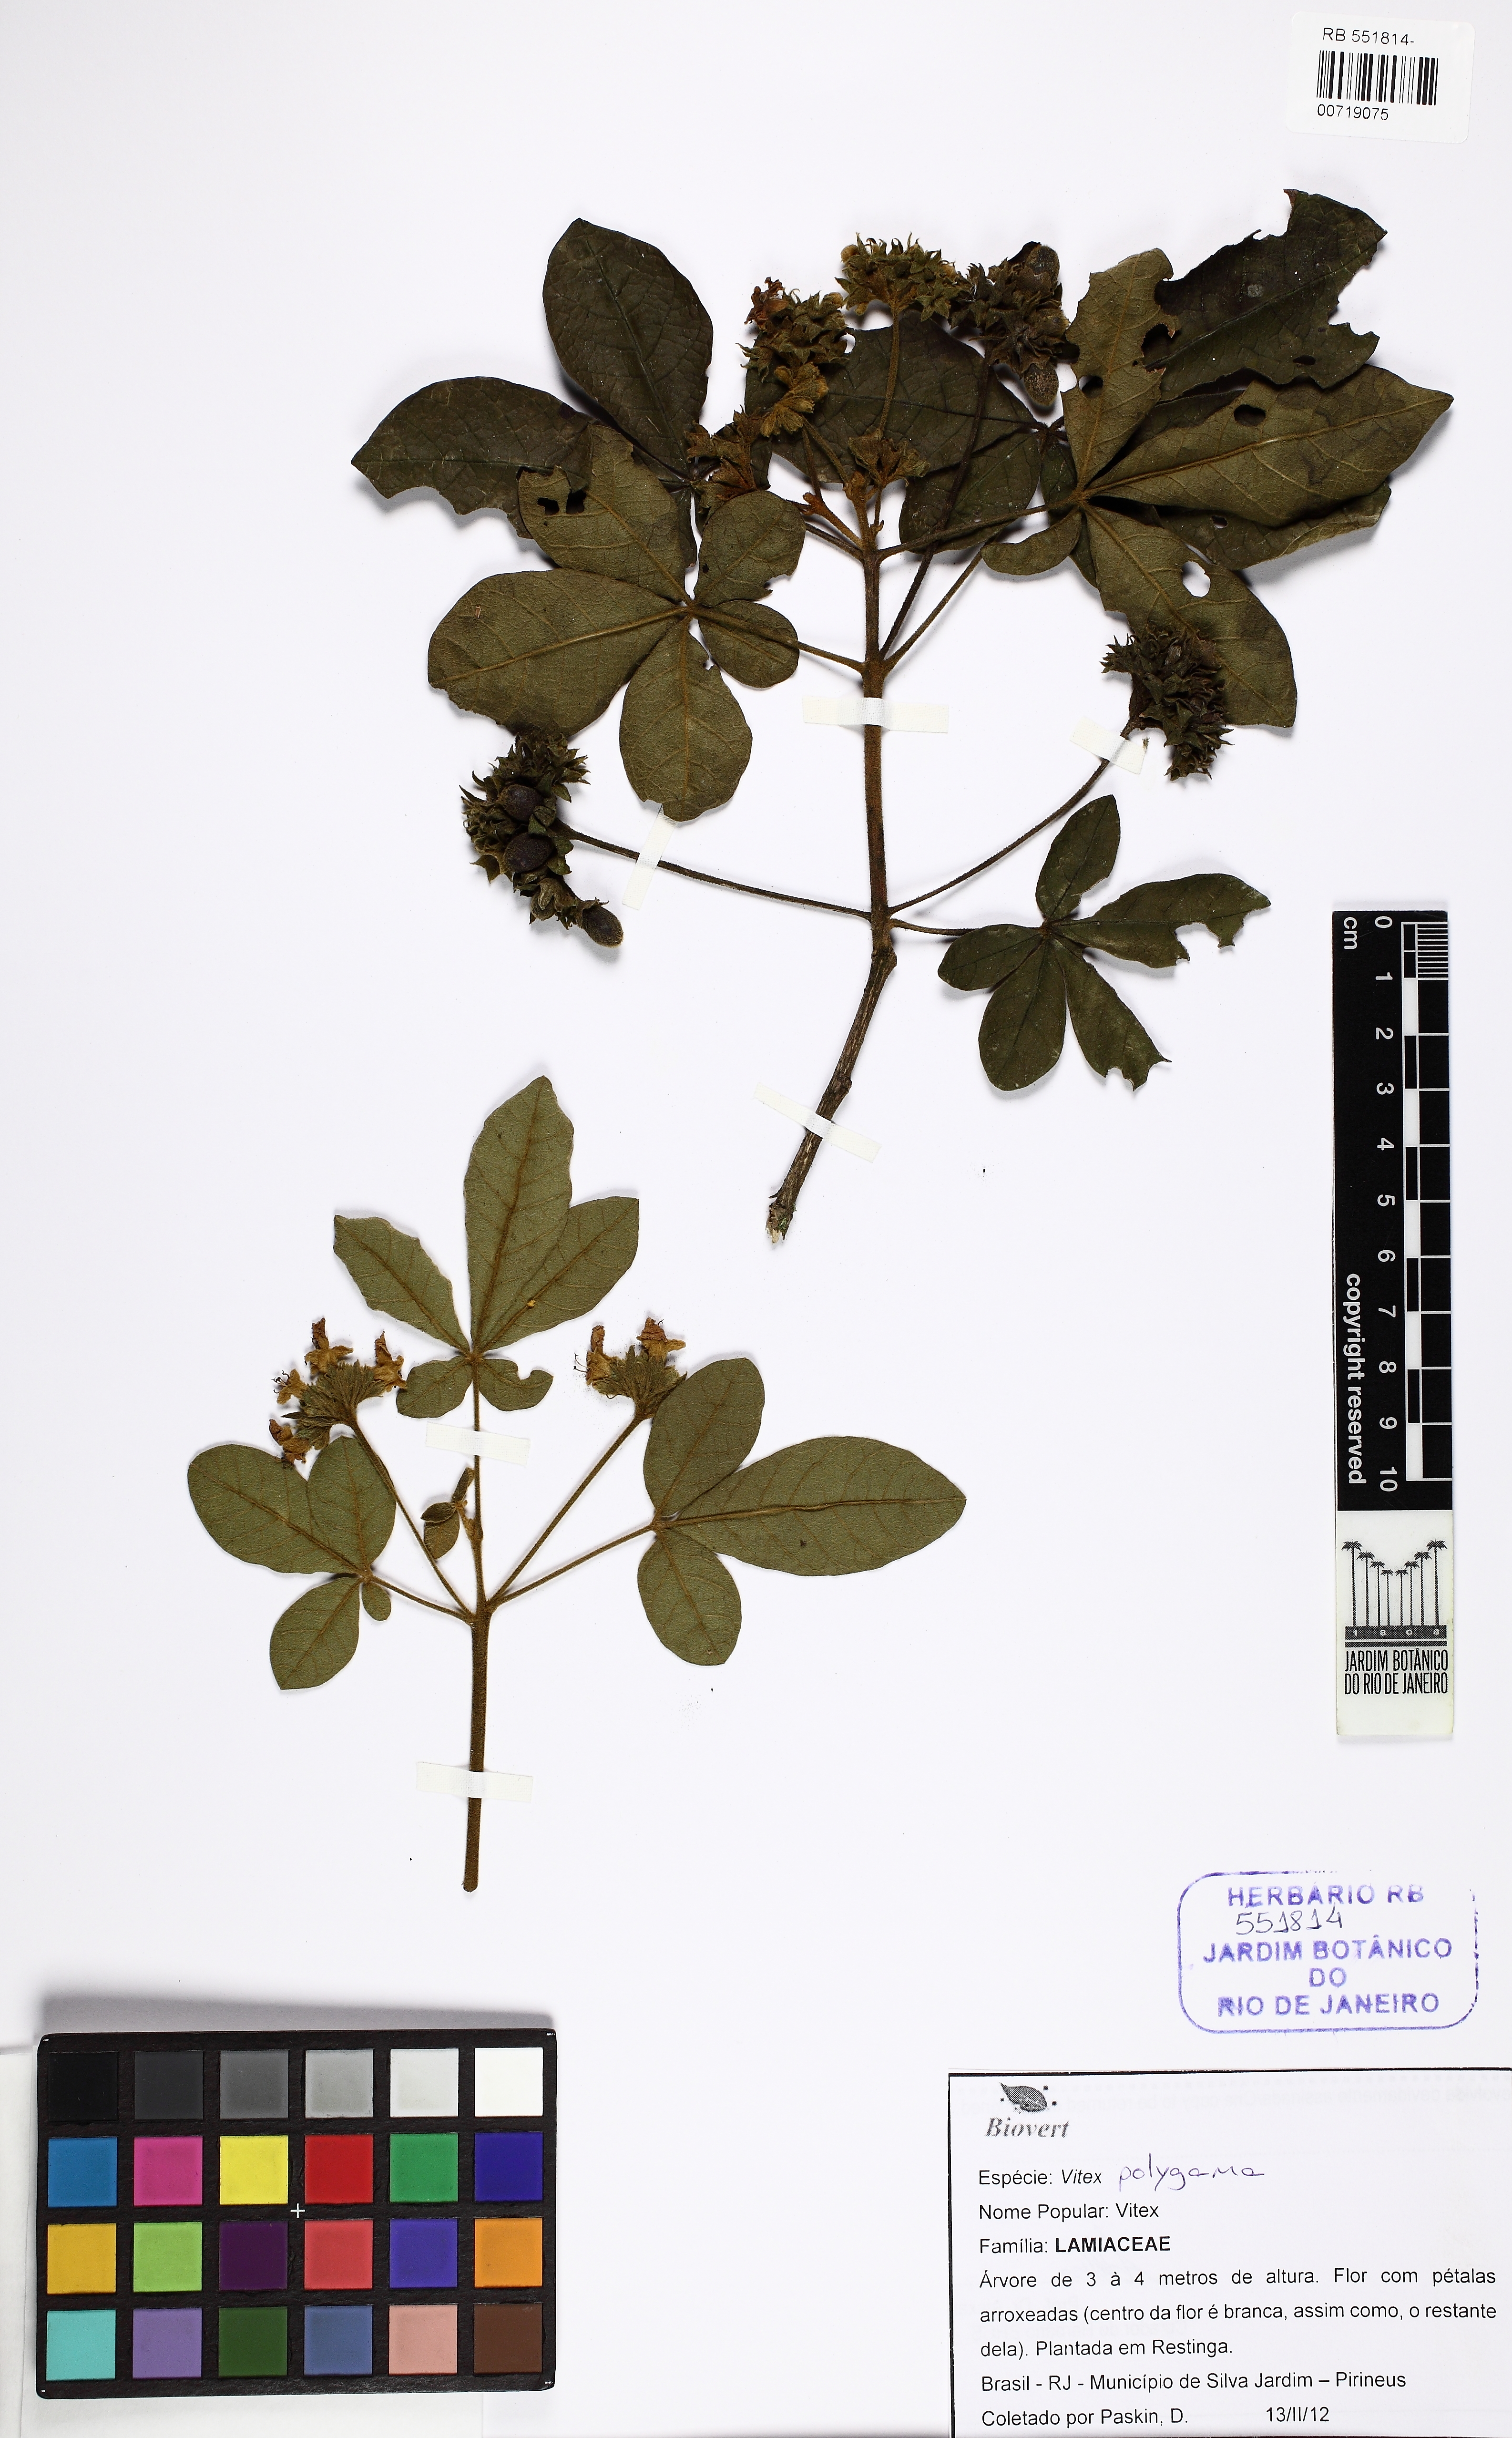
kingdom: Plantae
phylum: Tracheophyta
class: Magnoliopsida
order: Lamiales
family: Lamiaceae
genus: Vitex
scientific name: Vitex polygama
